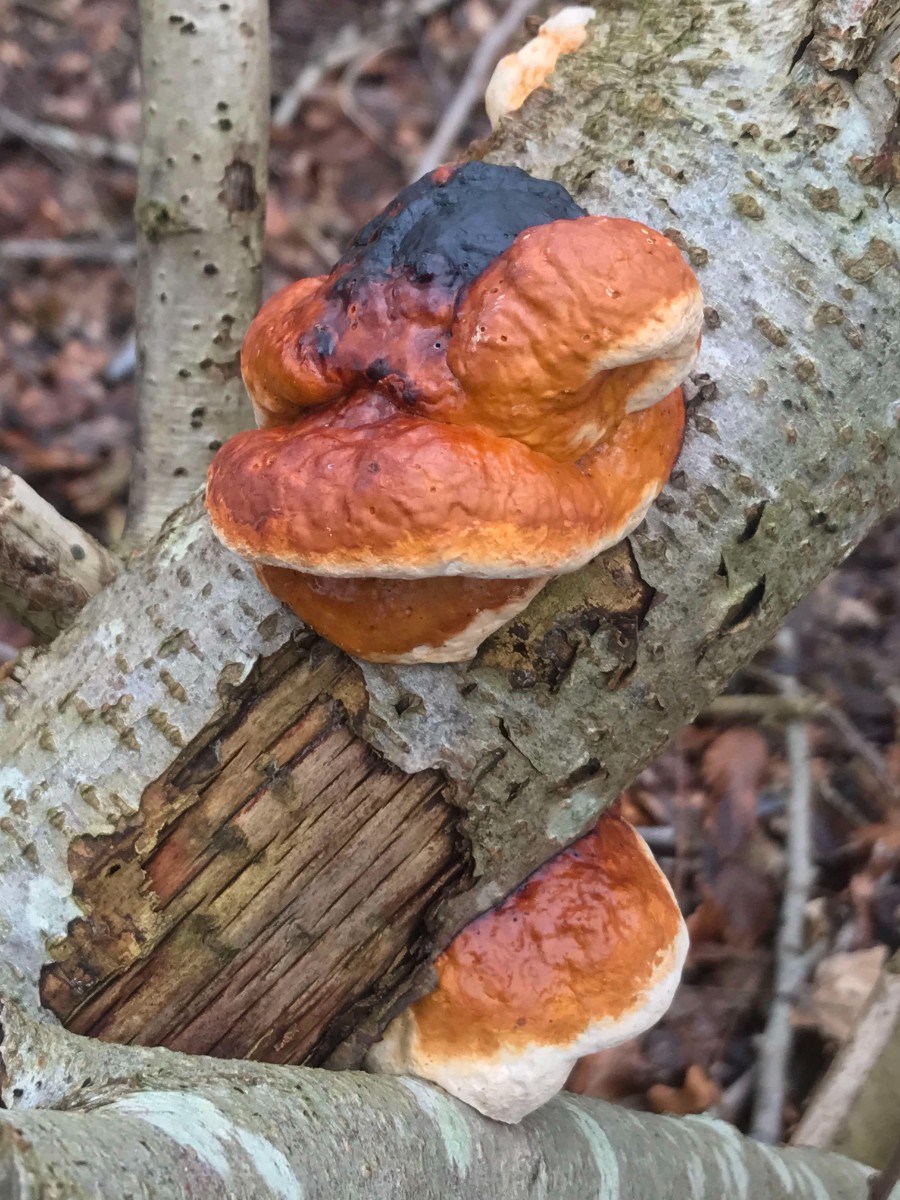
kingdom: Fungi
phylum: Basidiomycota
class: Agaricomycetes
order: Polyporales
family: Fomitopsidaceae
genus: Fomitopsis
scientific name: Fomitopsis pinicola
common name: randbæltet hovporesvamp
